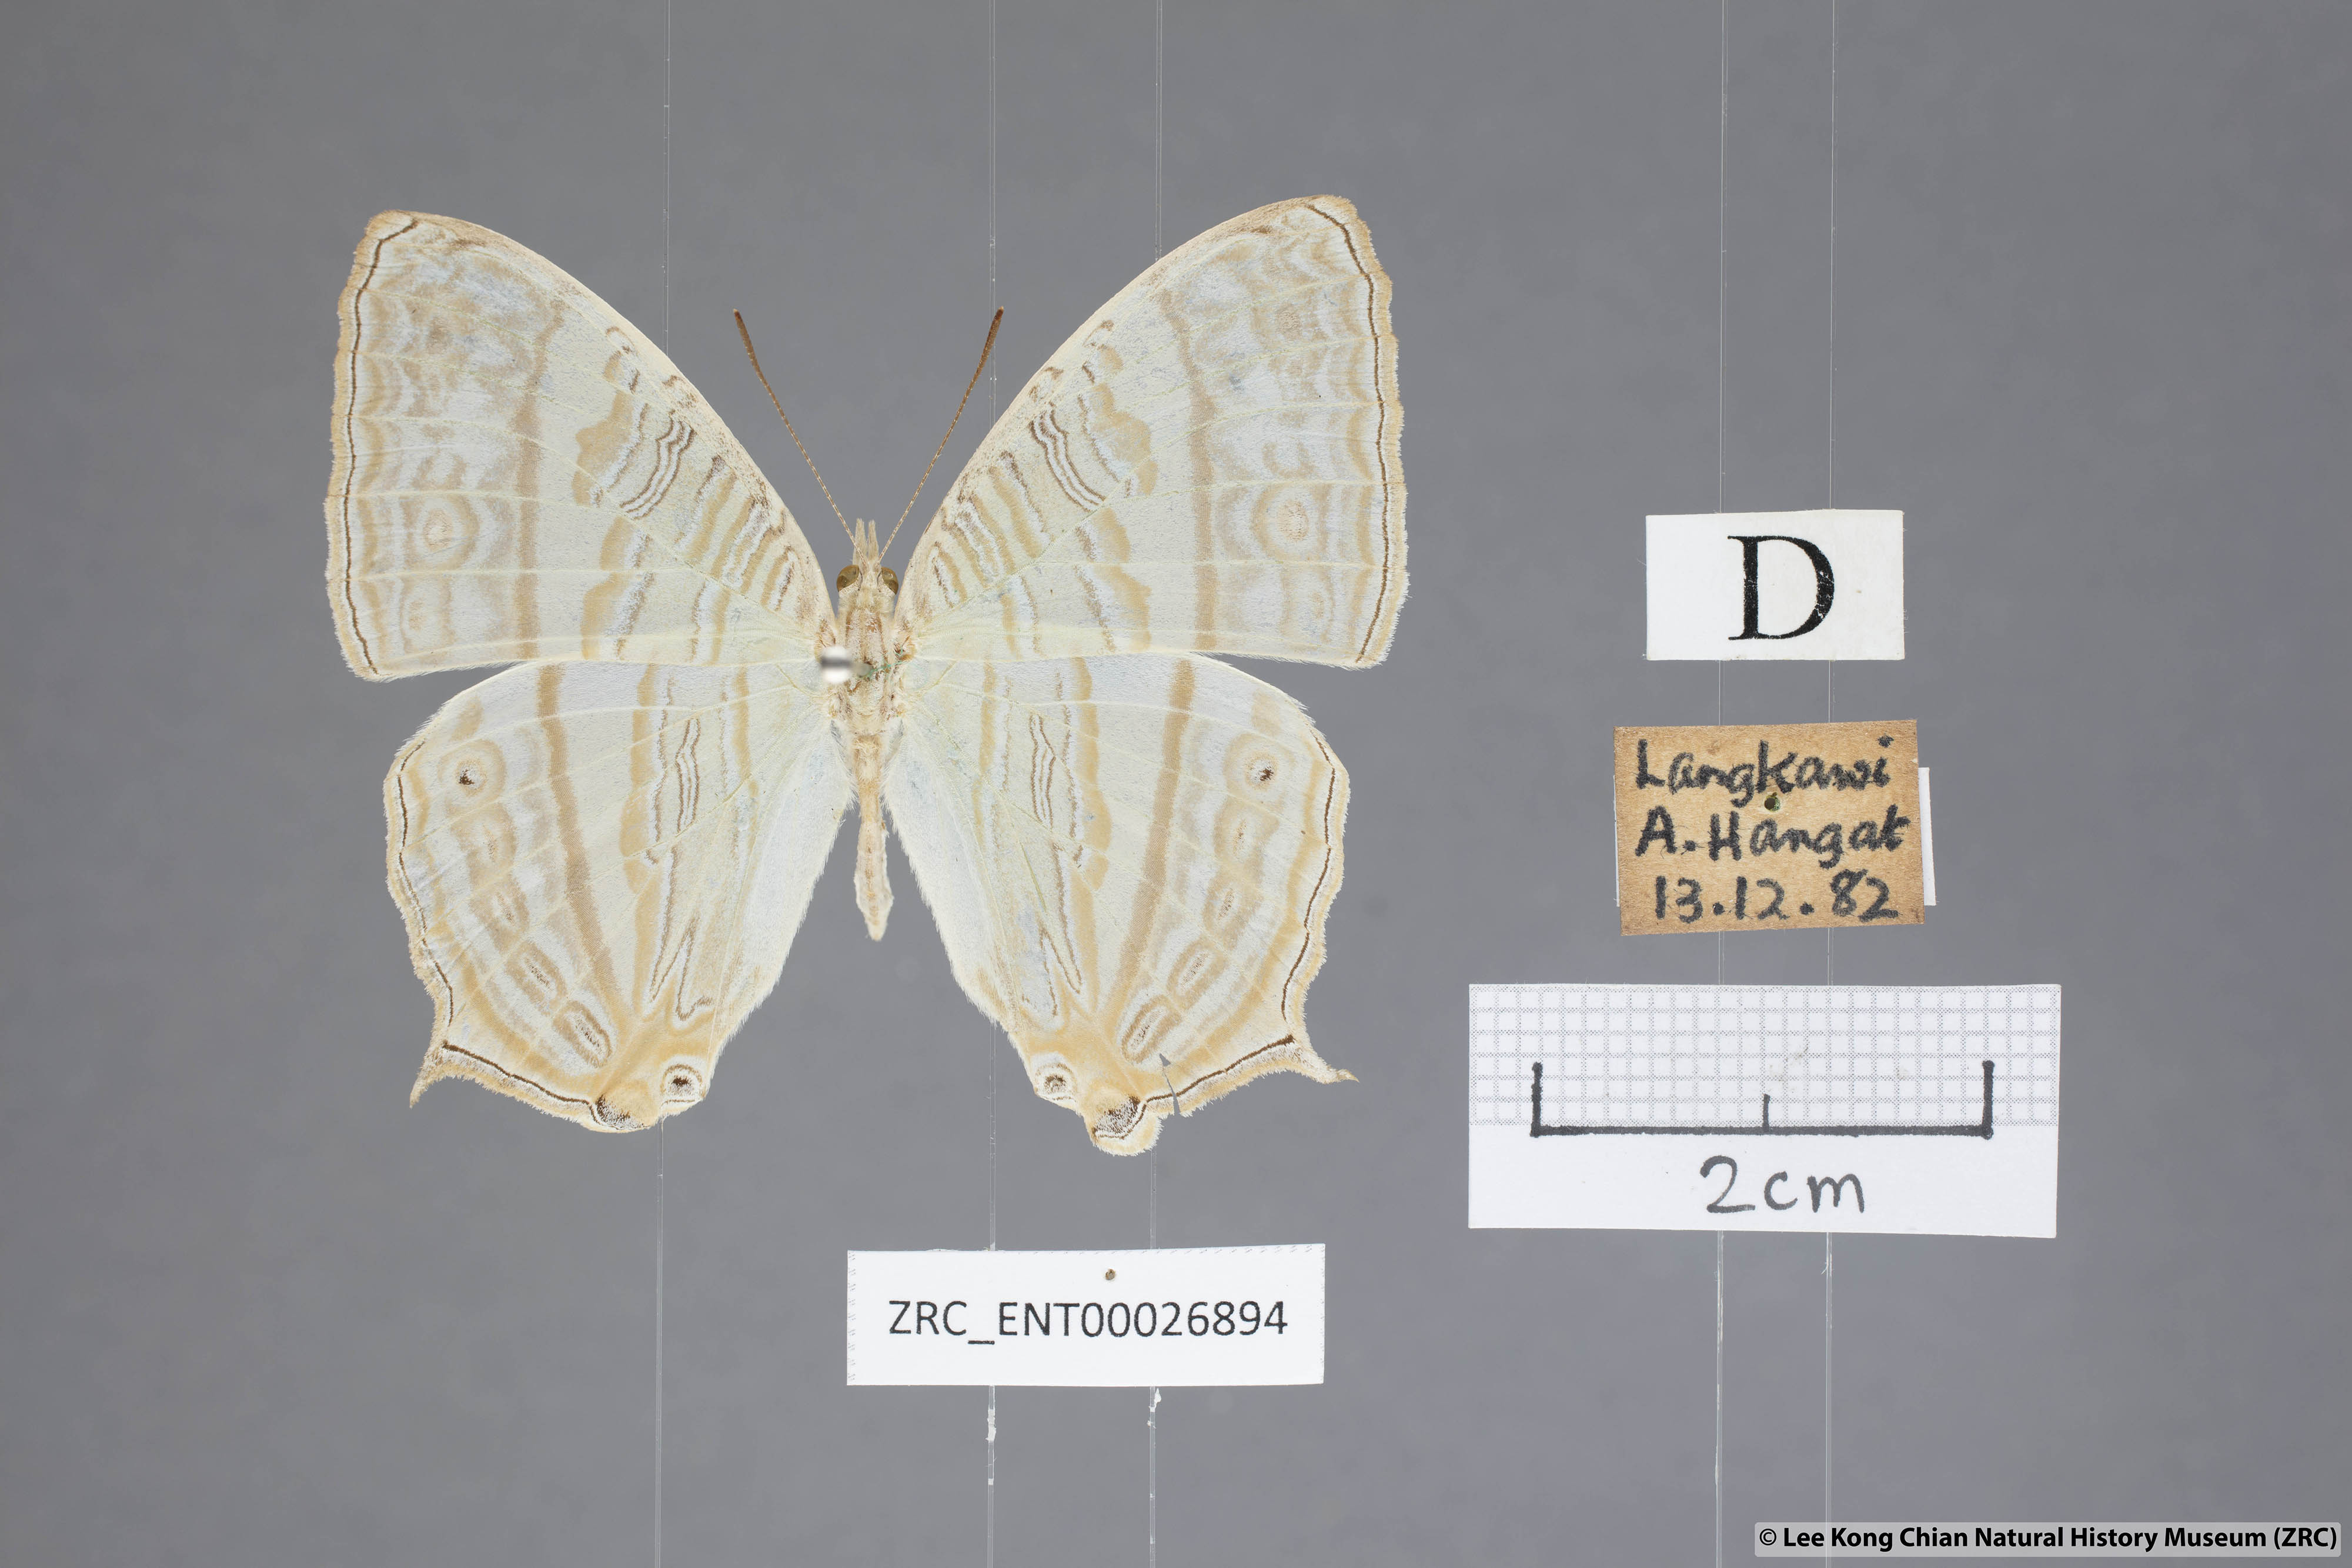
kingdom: Animalia
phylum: Arthropoda
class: Insecta
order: Lepidoptera
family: Nymphalidae
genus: Cyrestis
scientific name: Cyrestis cocles
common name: Marbled map
